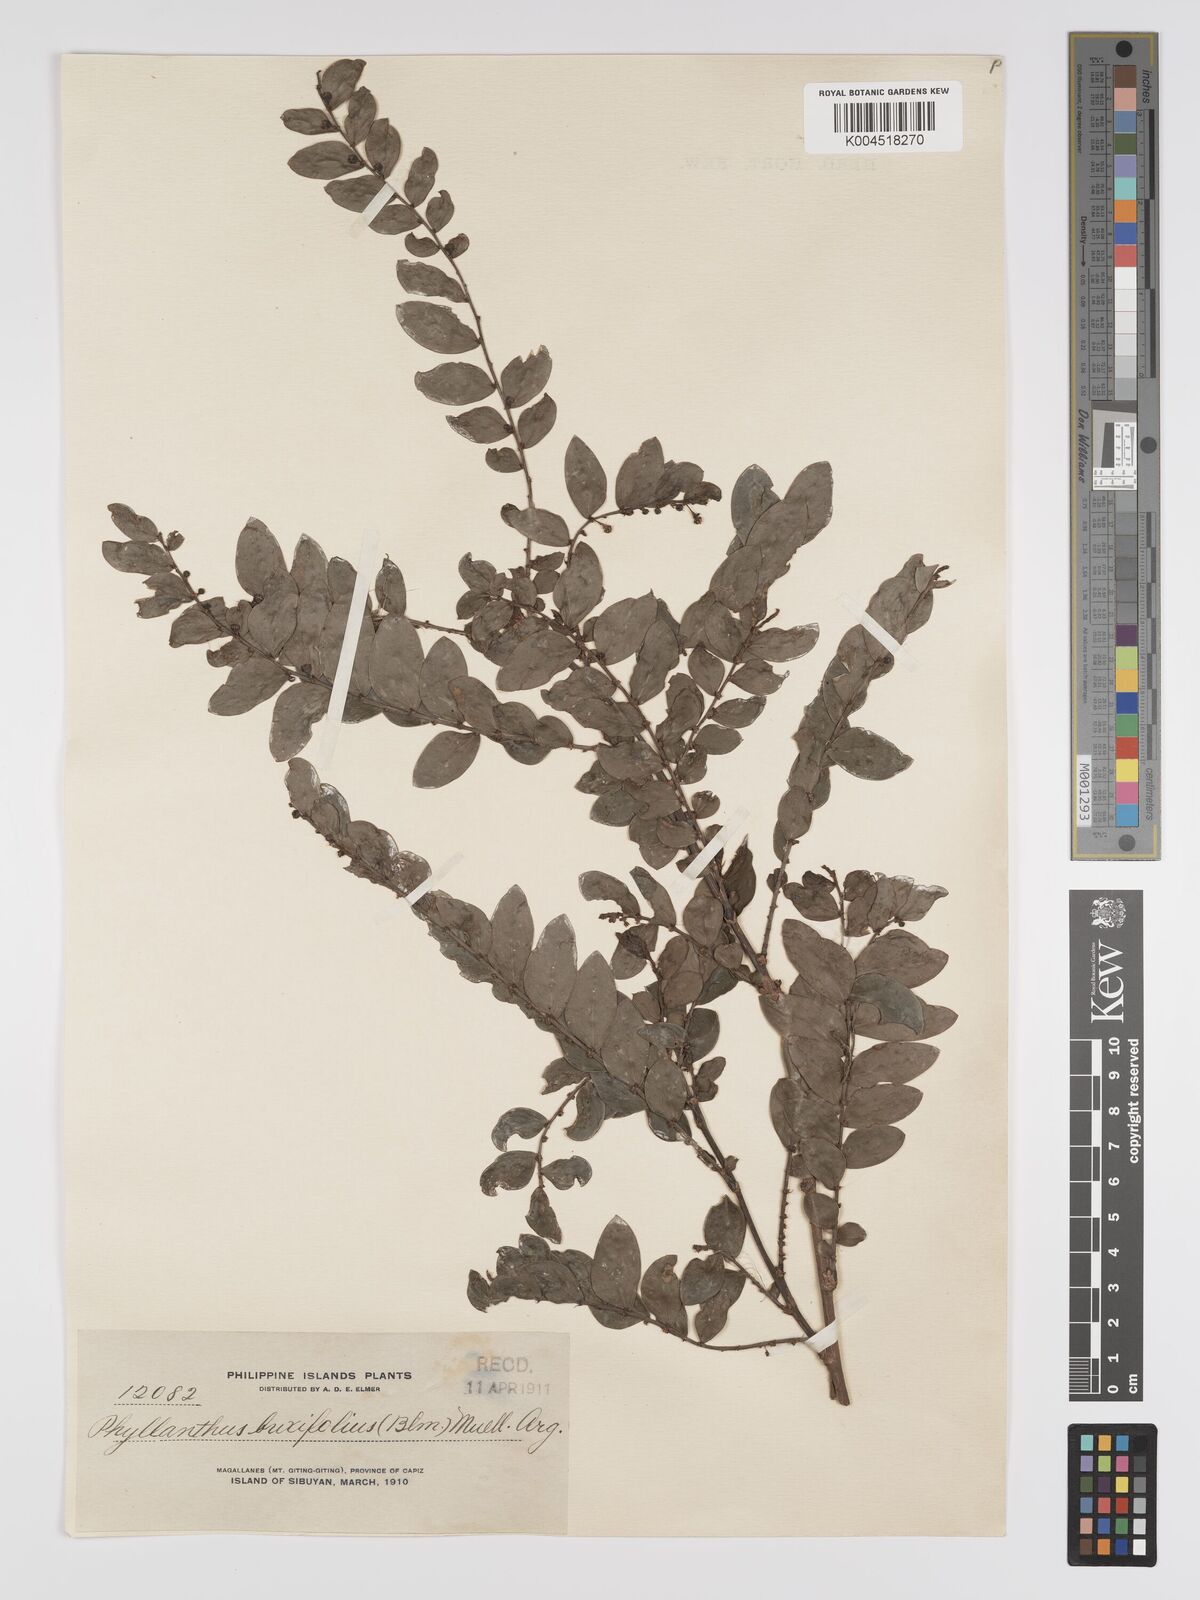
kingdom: Plantae
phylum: Tracheophyta
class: Magnoliopsida
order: Malpighiales
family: Phyllanthaceae
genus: Phyllanthus
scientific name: Phyllanthus buxifolius
